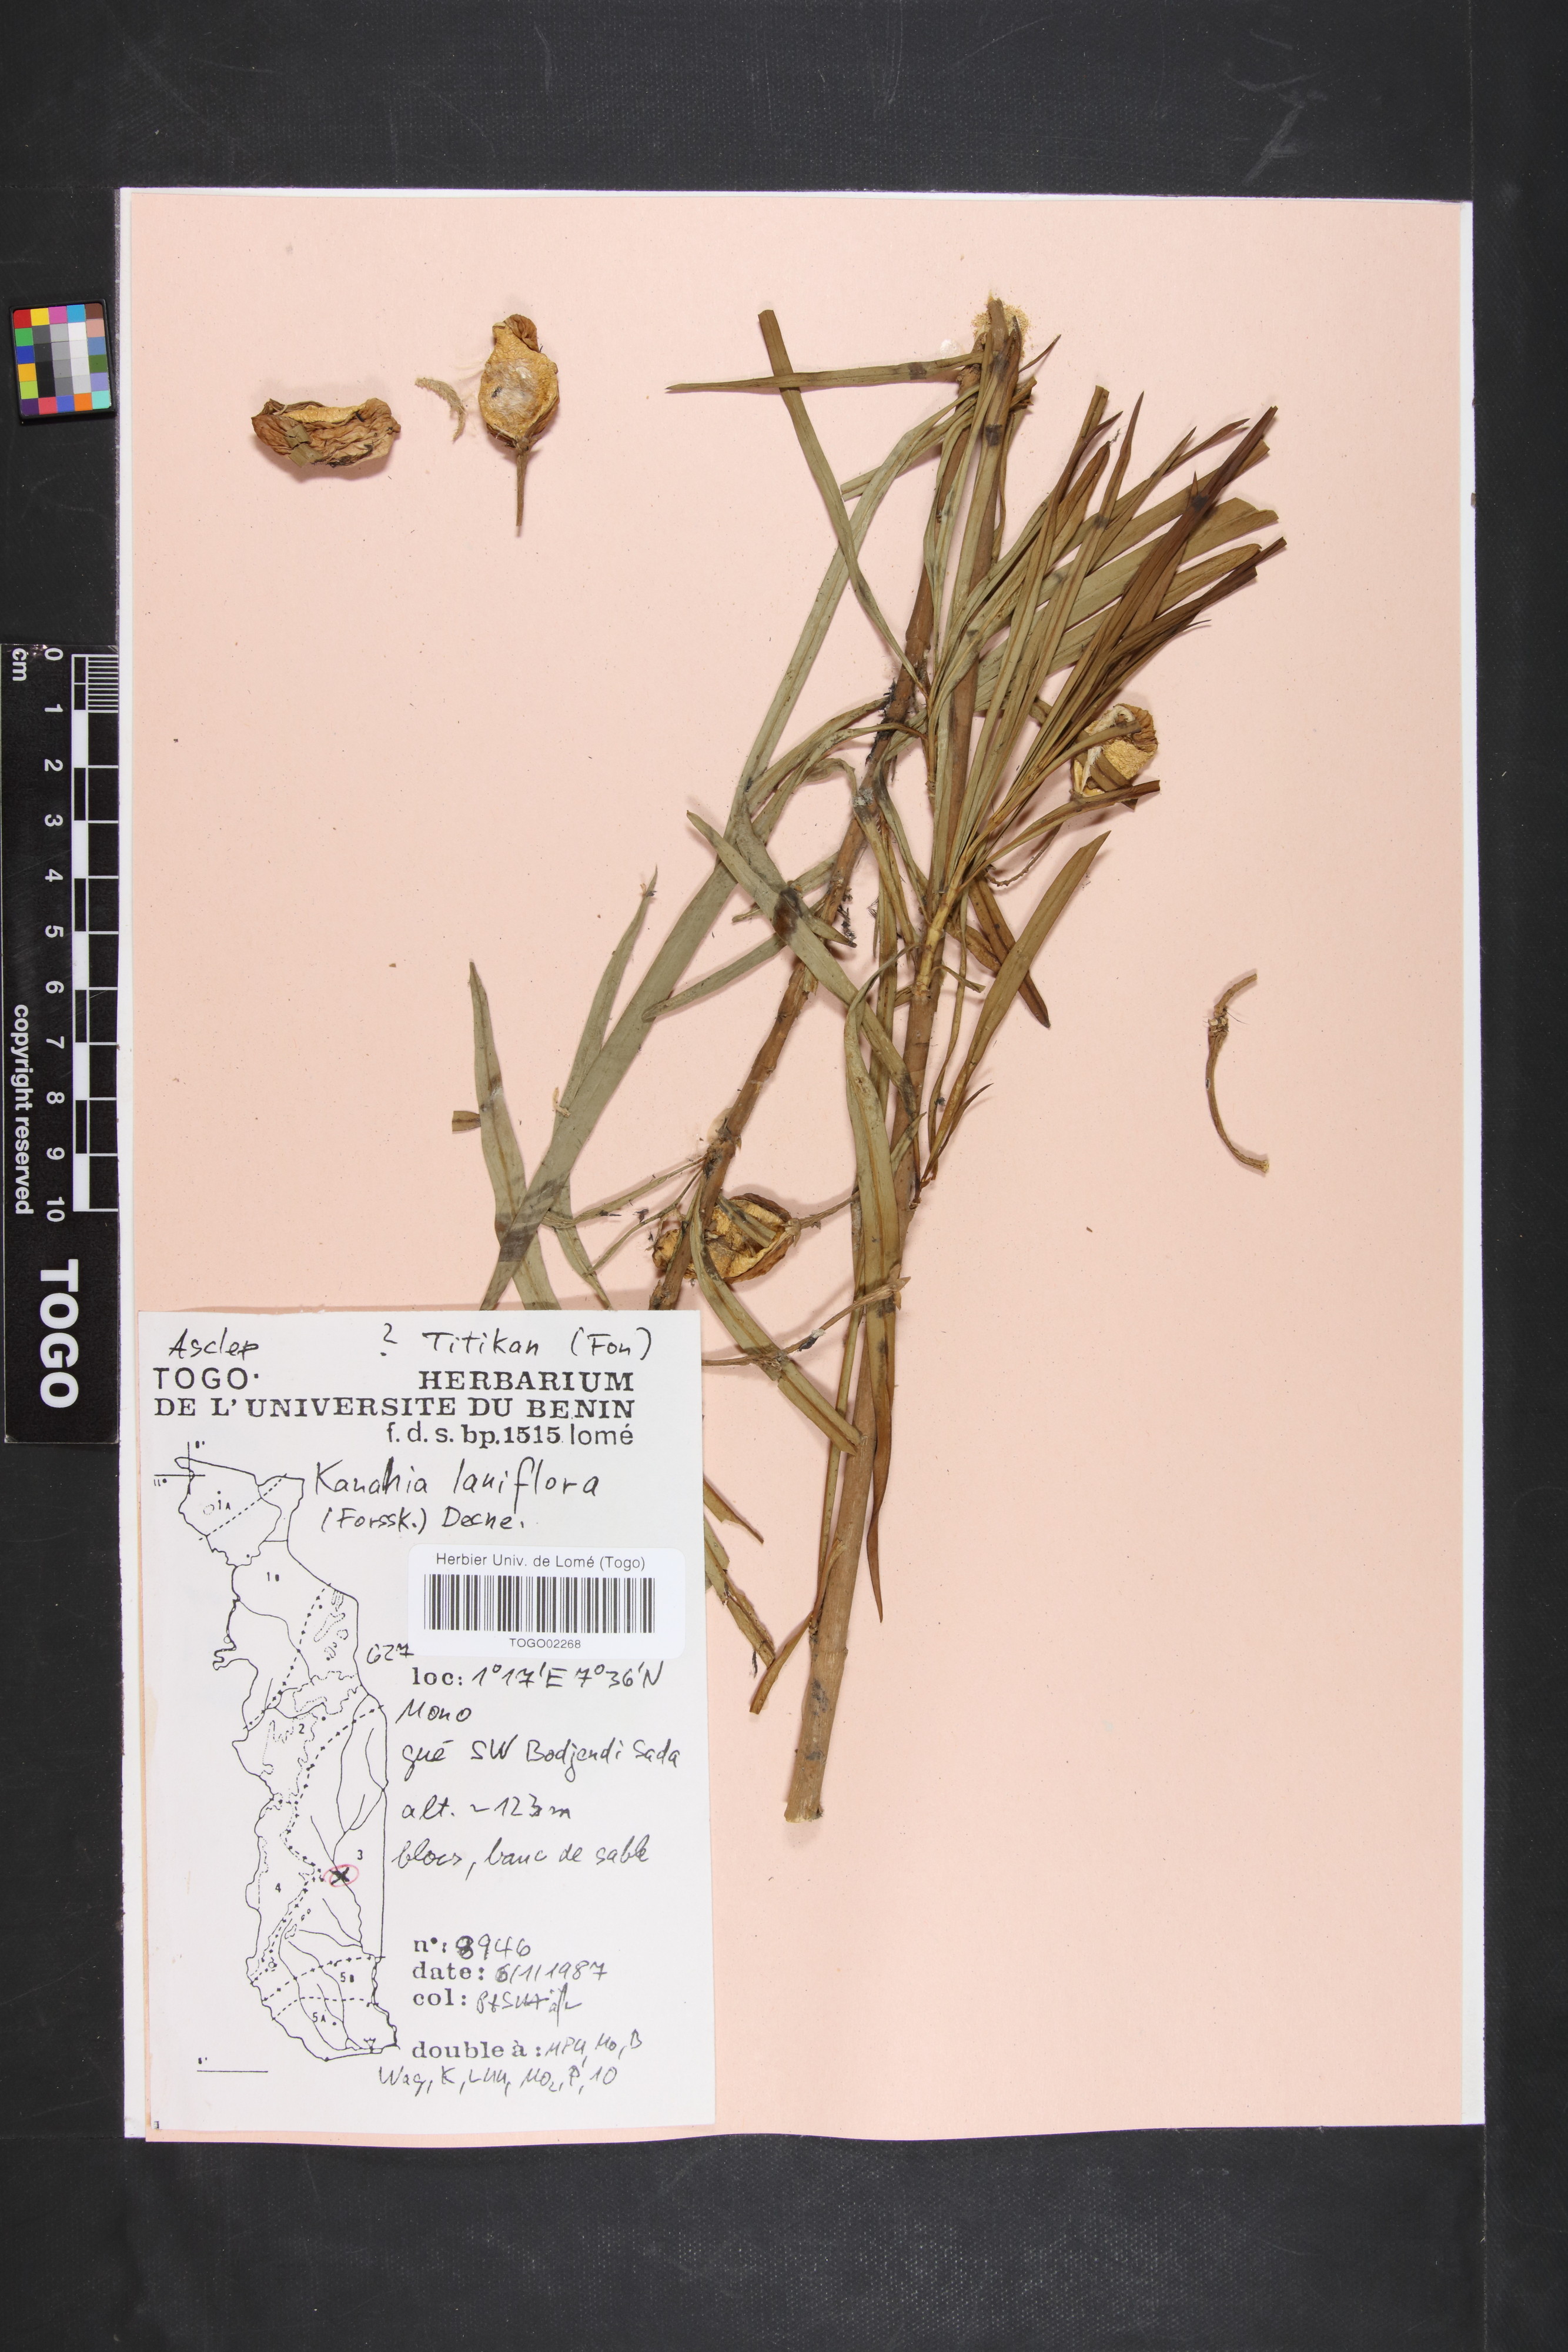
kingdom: Plantae
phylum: Tracheophyta
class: Magnoliopsida
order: Gentianales
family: Apocynaceae
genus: Kanahia
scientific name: Kanahia laniflora
